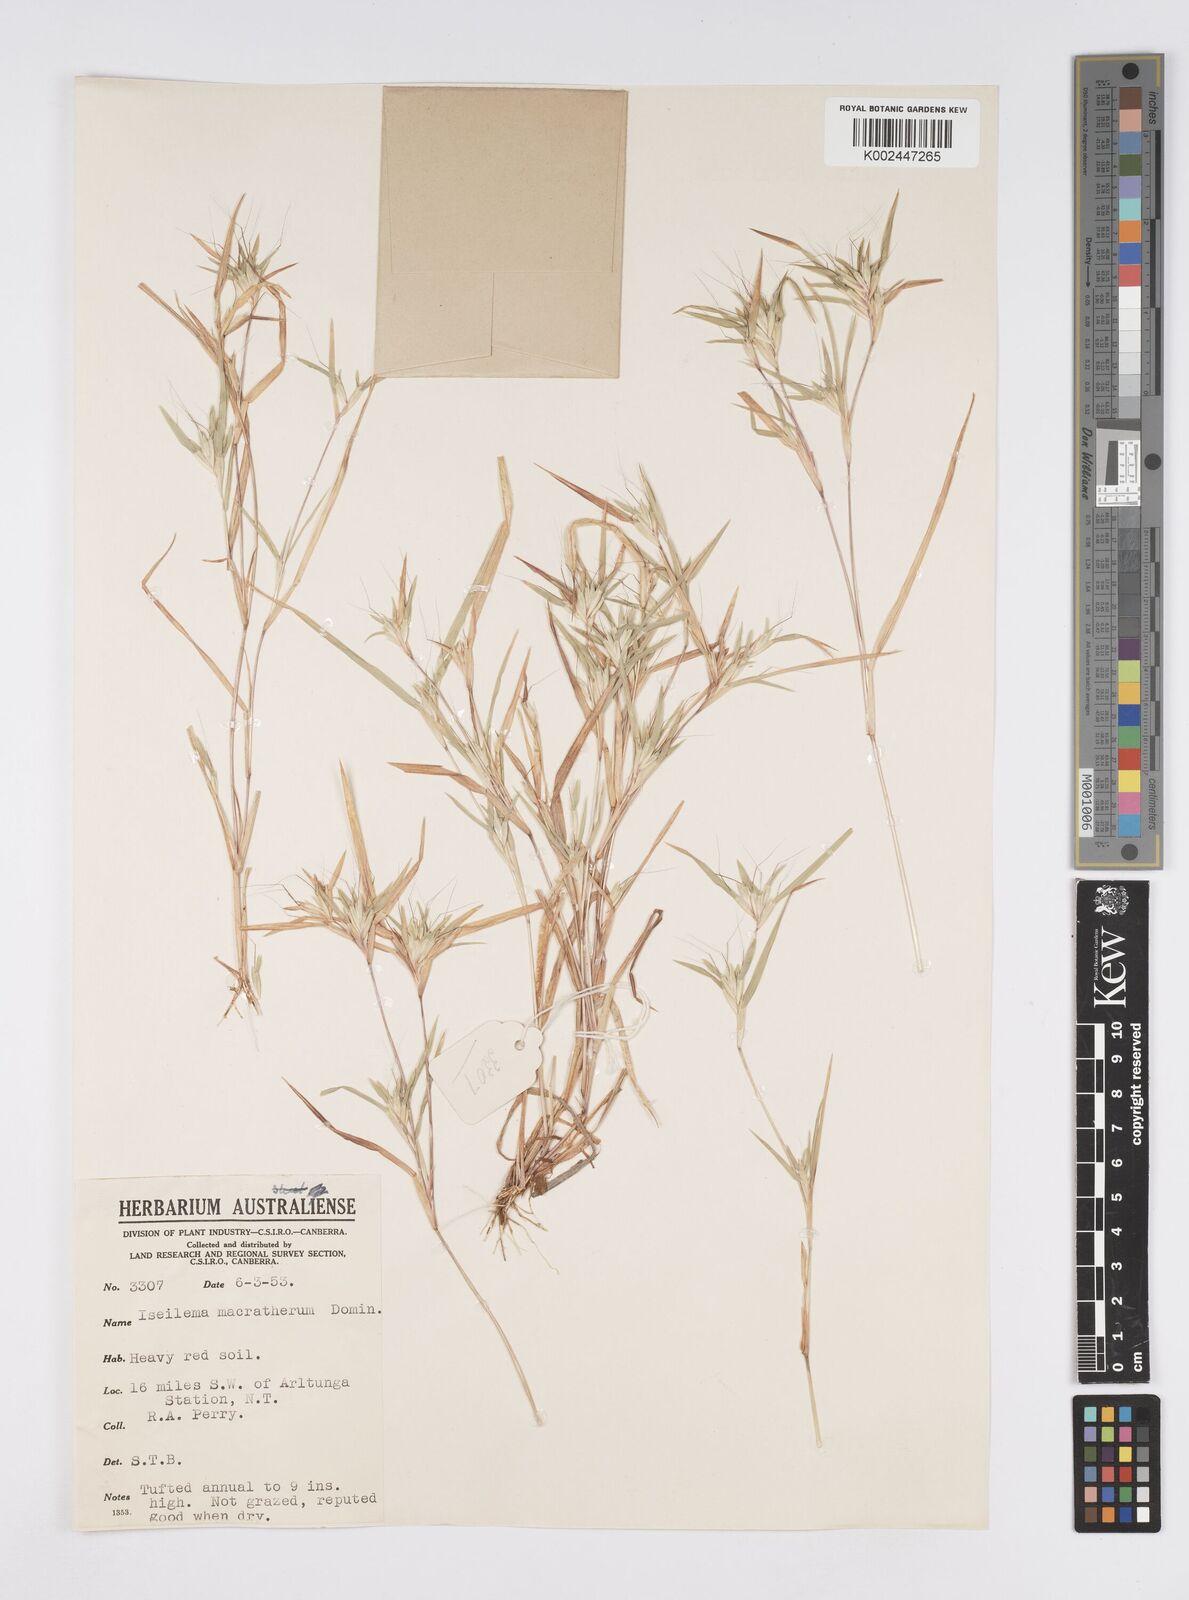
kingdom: Plantae
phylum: Tracheophyta
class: Liliopsida
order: Poales
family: Poaceae
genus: Iseilema
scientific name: Iseilema macratherum
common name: Bull flinders grass
